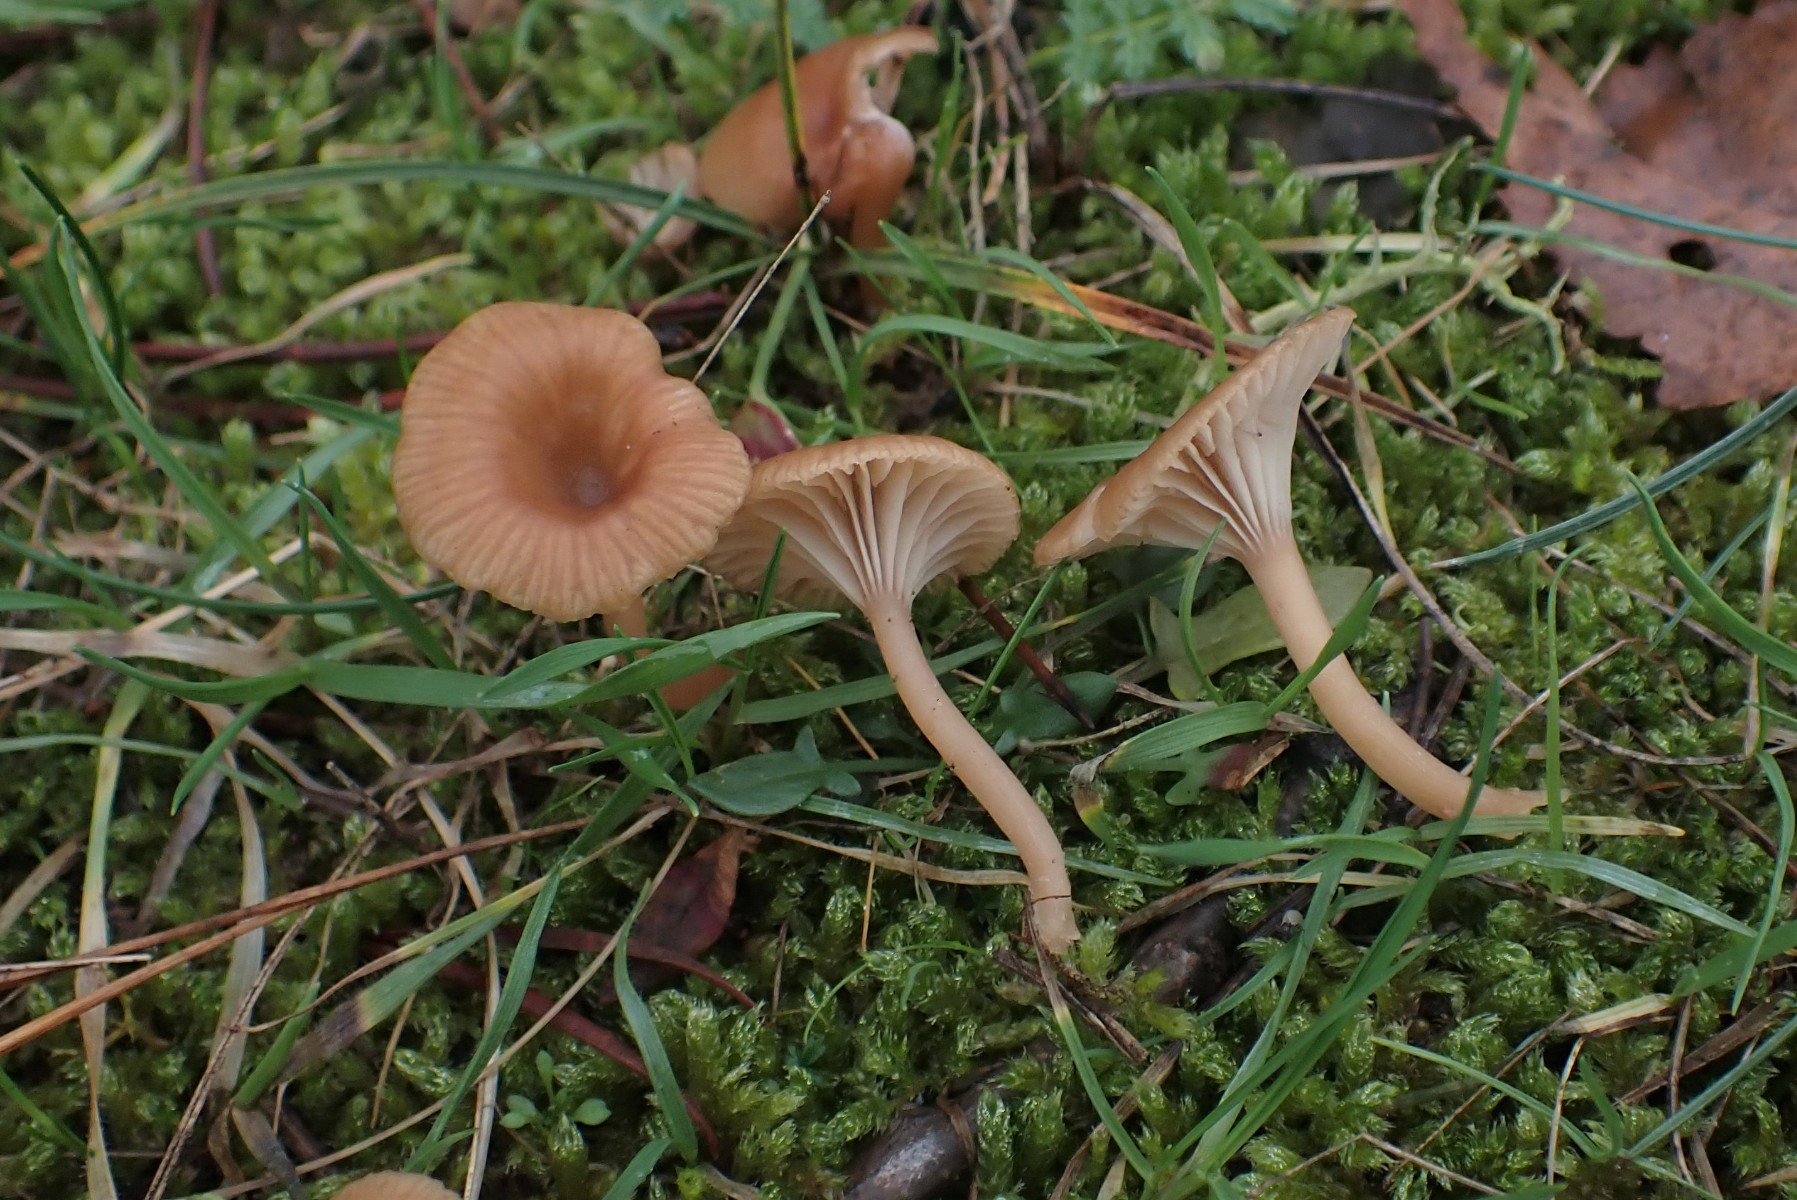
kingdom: Fungi
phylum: Basidiomycota
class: Agaricomycetes
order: Agaricales
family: Tricholomataceae
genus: Omphalina
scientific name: Omphalina pyxidata
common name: rødbrun navlehat
